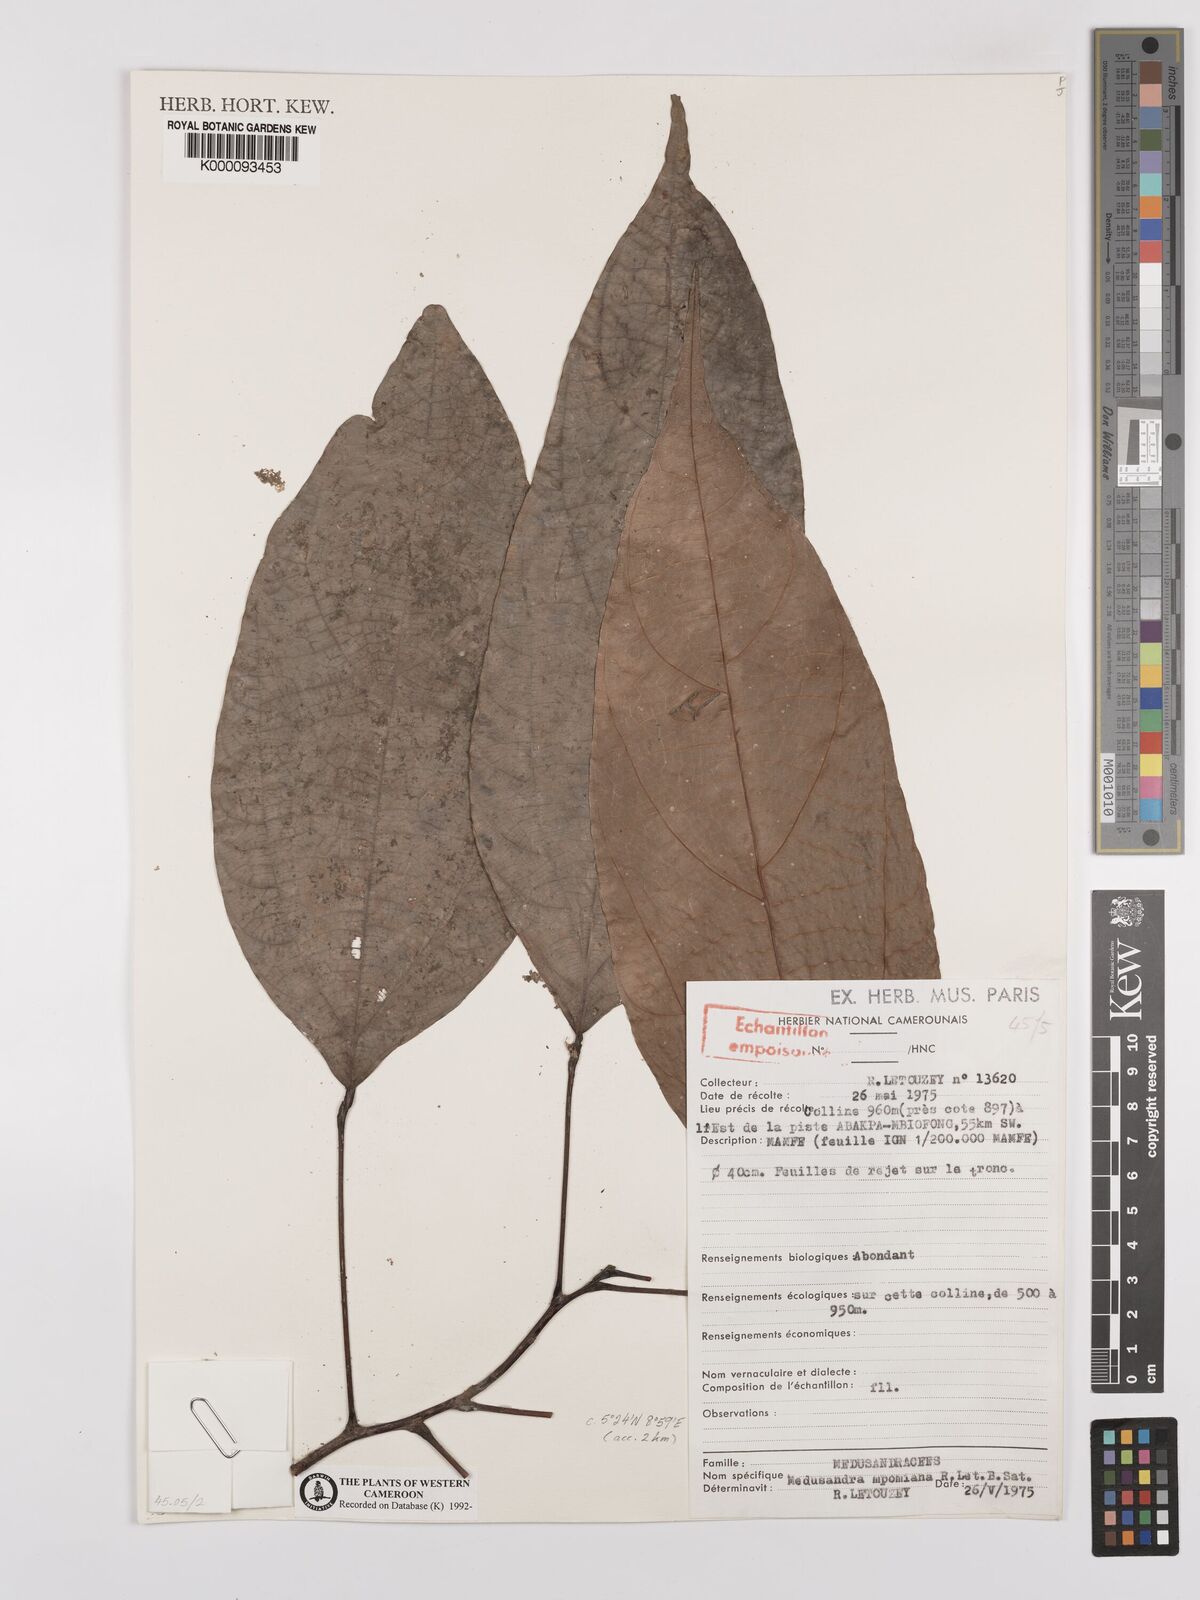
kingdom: Plantae
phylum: Tracheophyta
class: Magnoliopsida
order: Saxifragales
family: Peridiscaceae
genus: Medusandra
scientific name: Medusandra mpomiana
